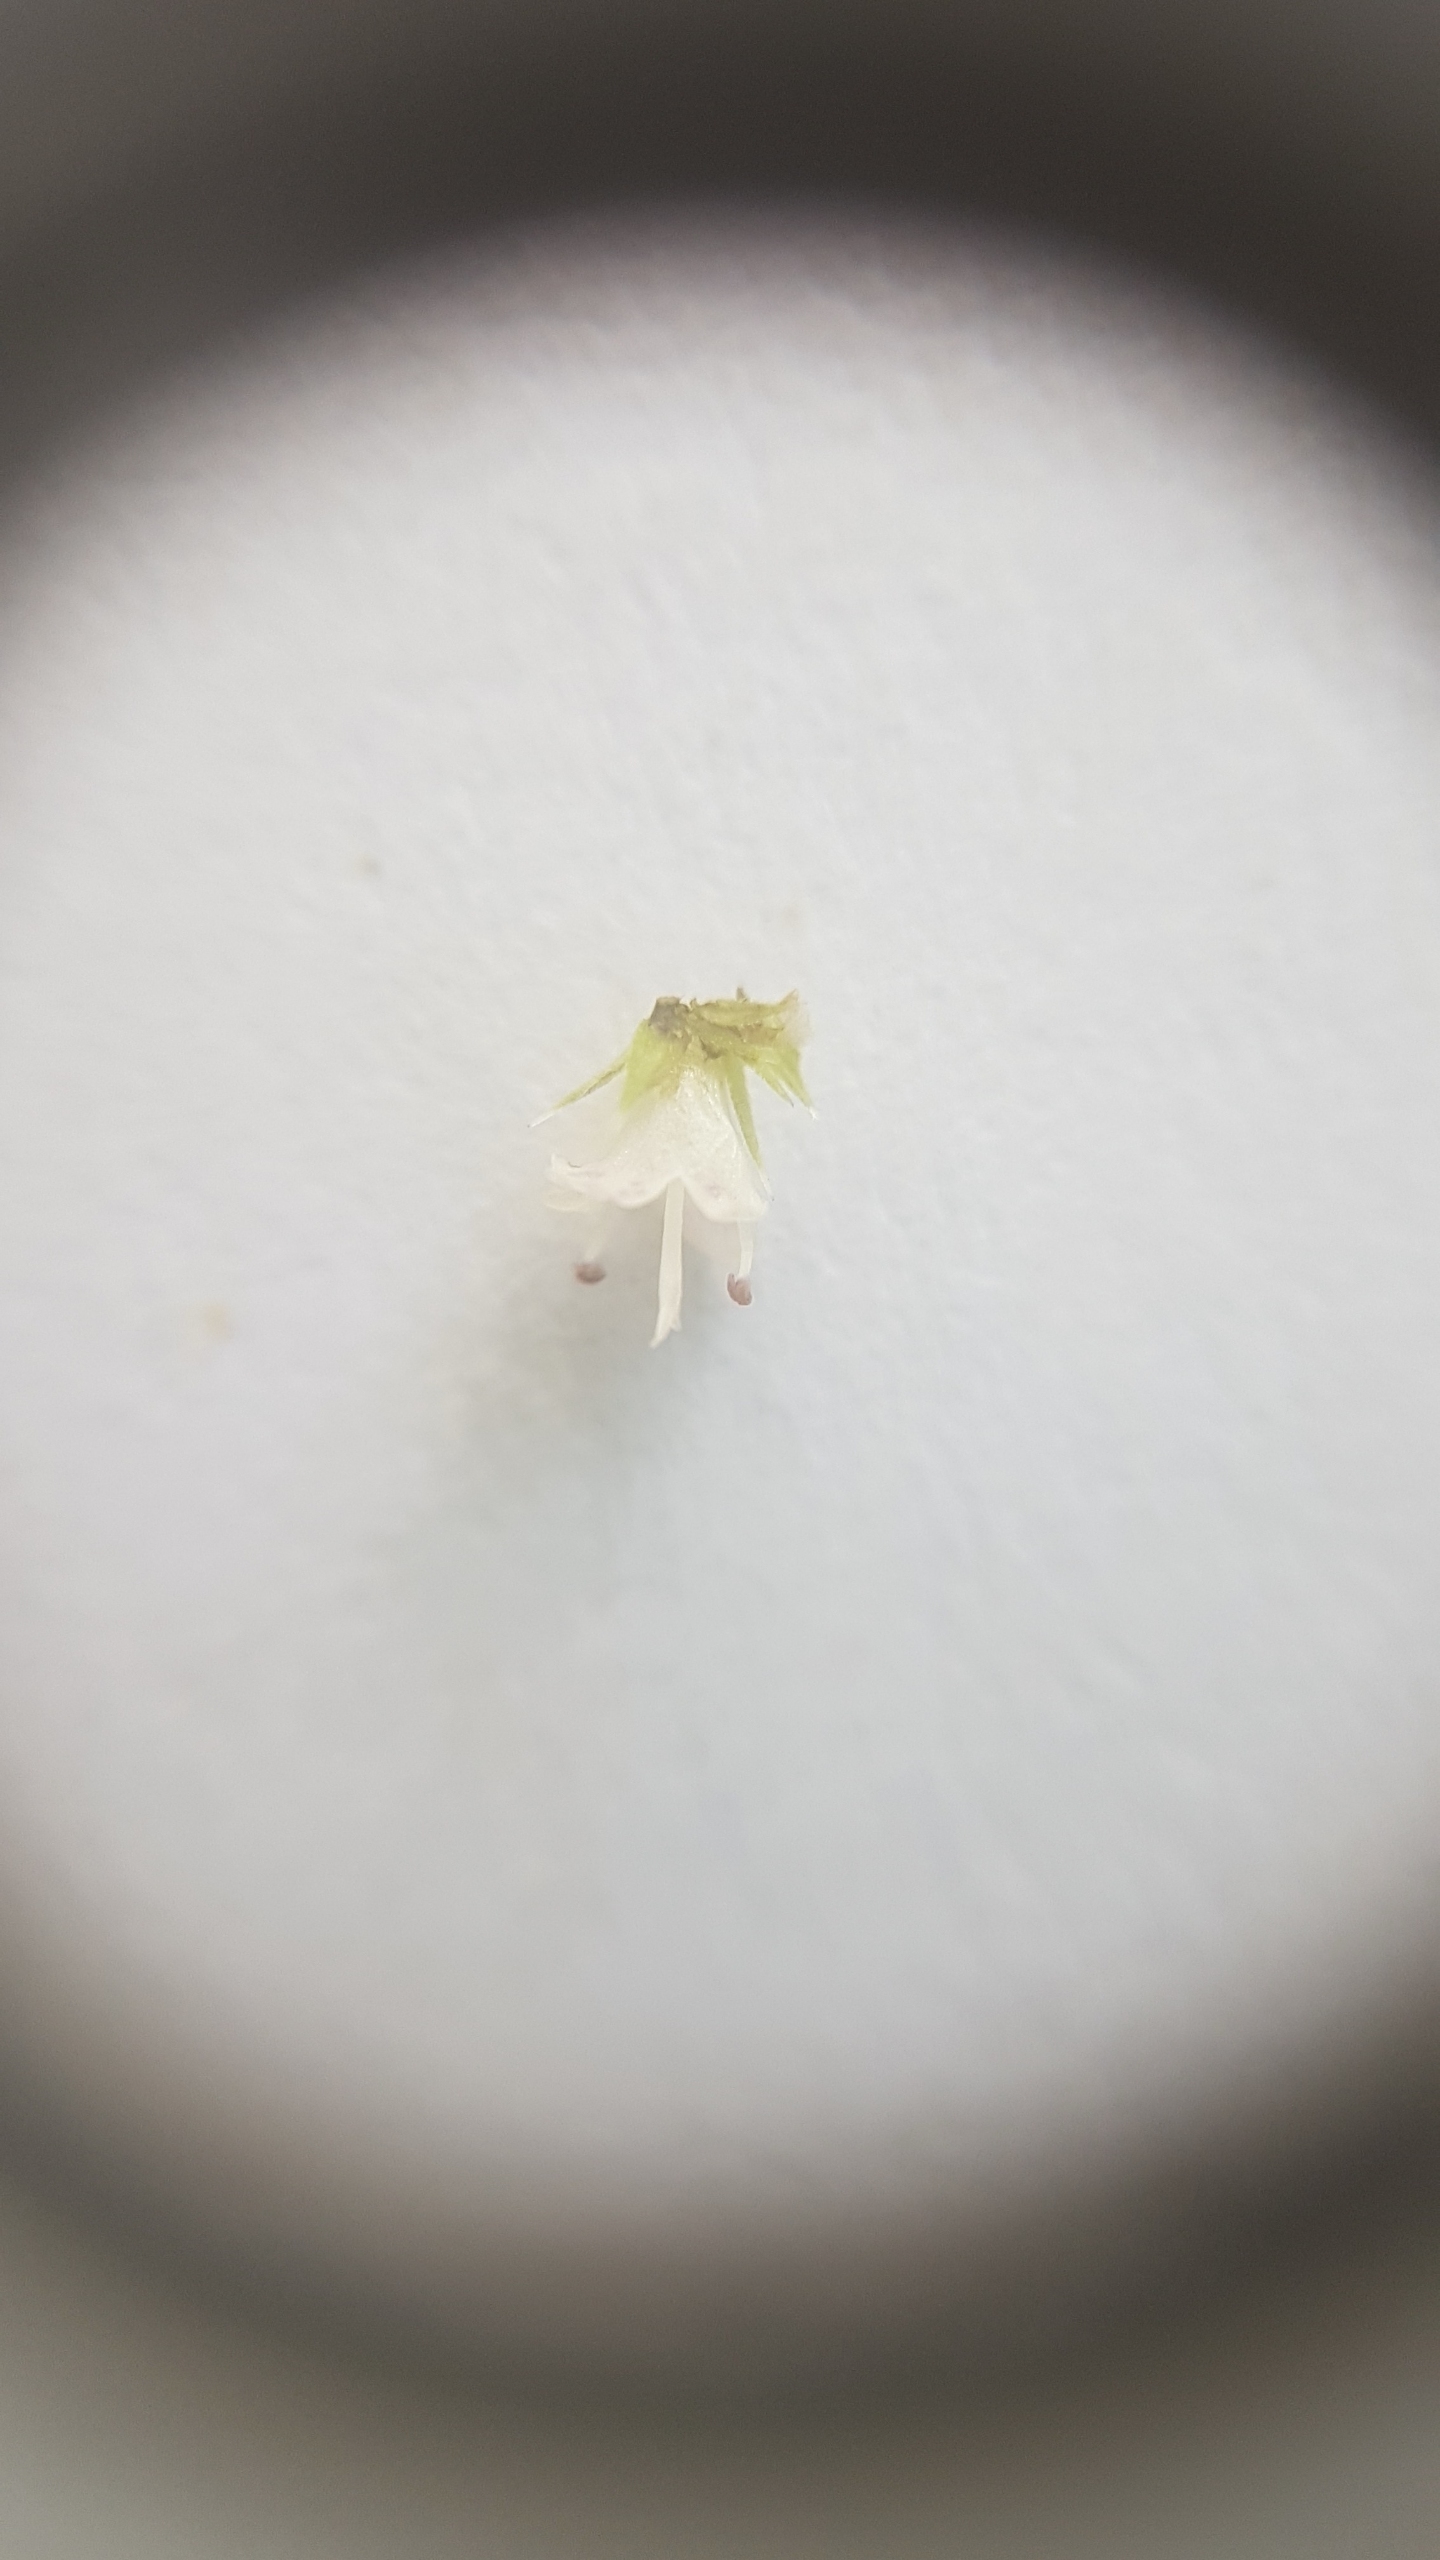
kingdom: Plantae
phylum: Tracheophyta
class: Magnoliopsida
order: Lamiales
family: Lamiaceae
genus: Lycopus
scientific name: Lycopus europaeus
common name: Sværtevæld
